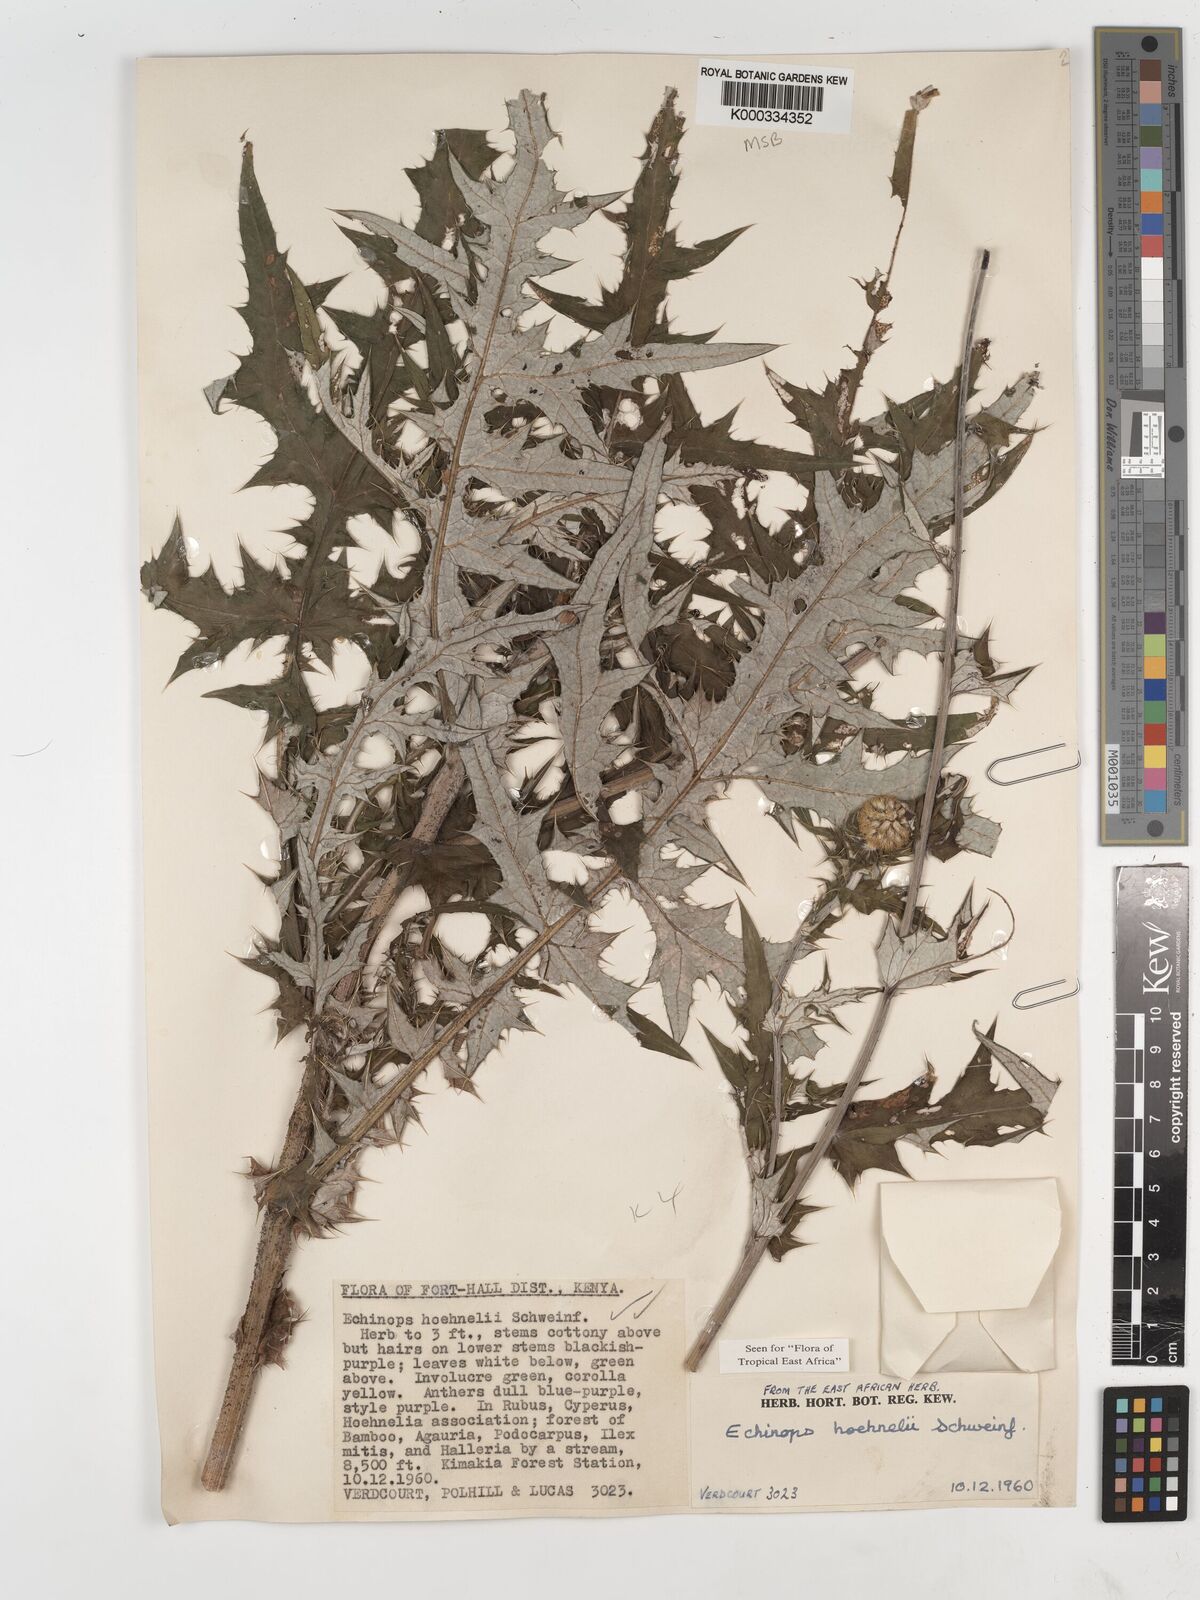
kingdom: Plantae
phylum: Tracheophyta
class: Magnoliopsida
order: Asterales
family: Asteraceae
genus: Echinops
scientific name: Echinops hoehnelii
